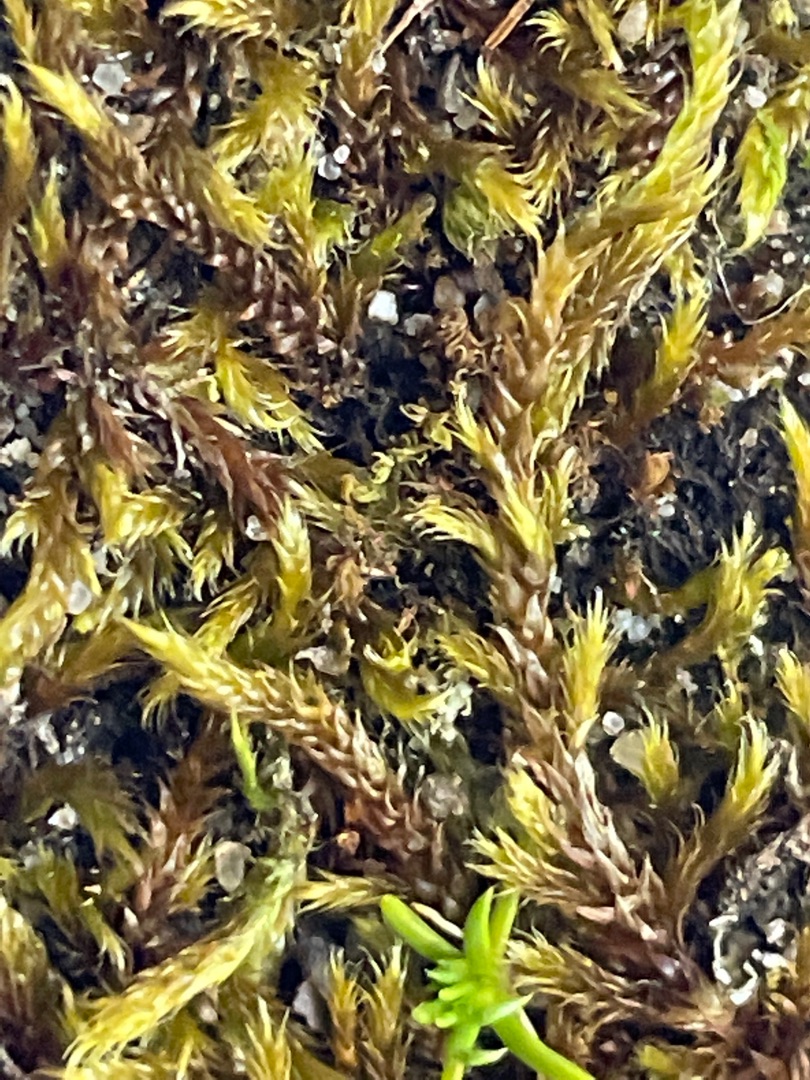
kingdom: Plantae
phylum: Bryophyta
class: Bryopsida
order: Hypnales
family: Hypnaceae
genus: Hypnum
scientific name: Hypnum cupressiforme
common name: Almindelig cypresmos
